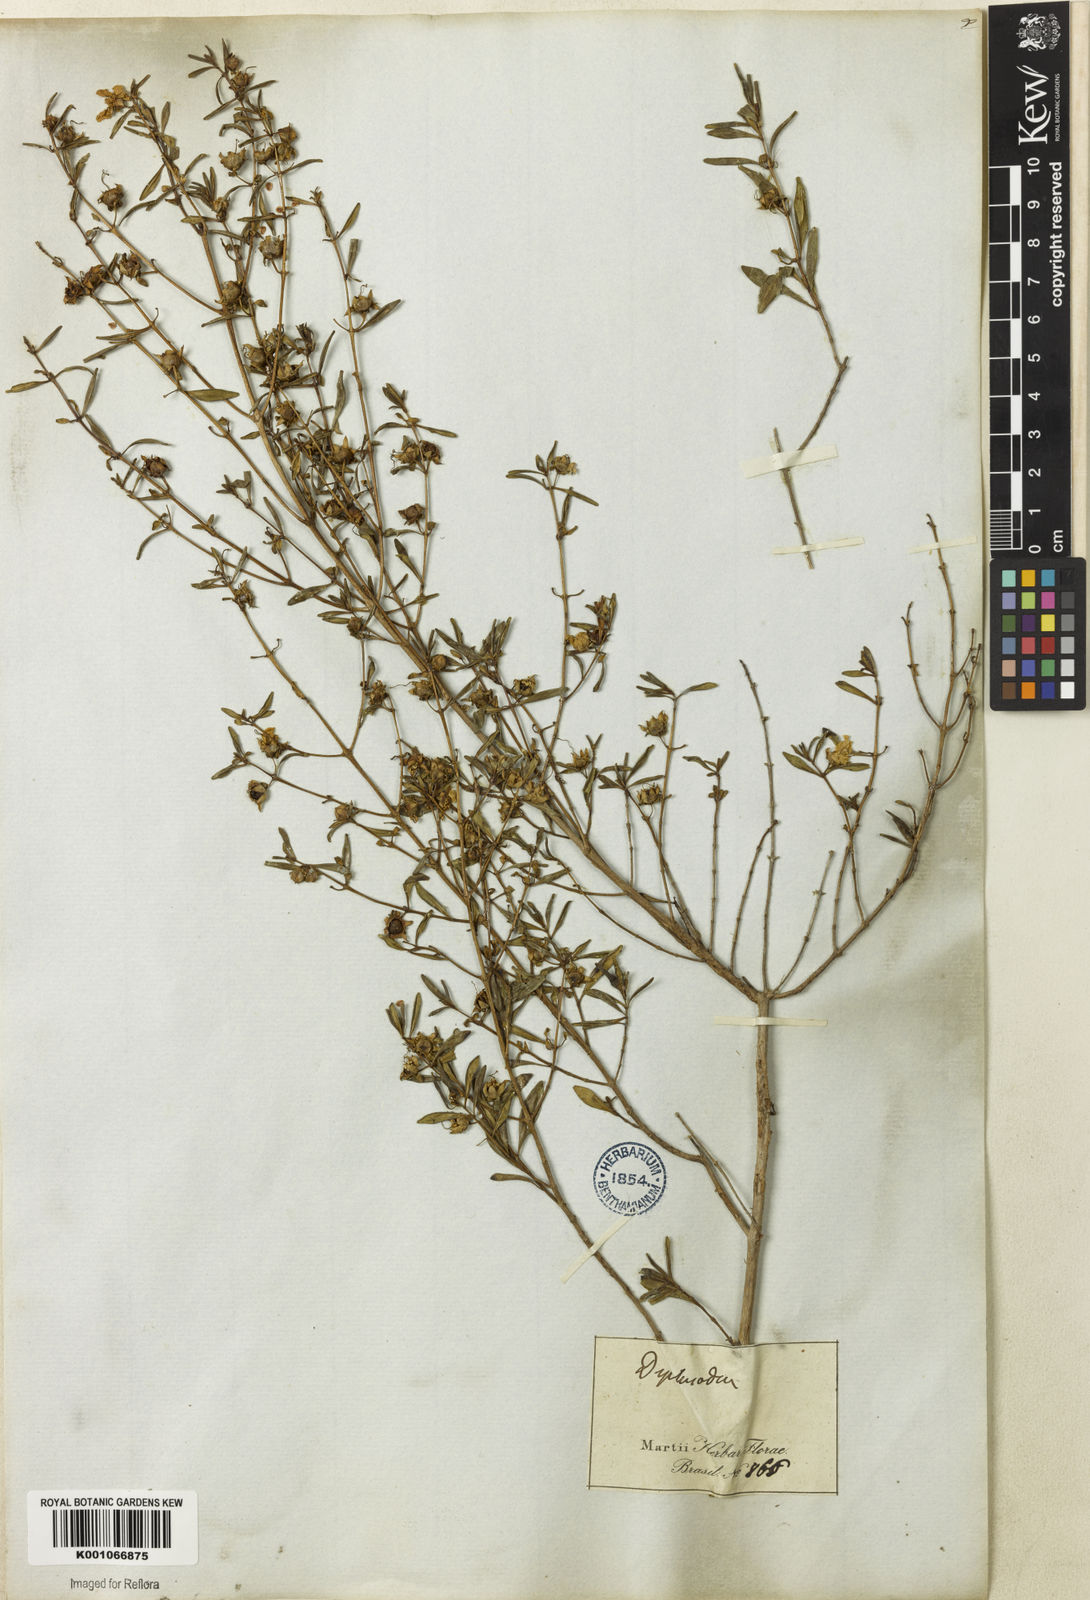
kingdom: Plantae
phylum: Tracheophyta
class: Magnoliopsida
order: Myrtales
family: Lythraceae
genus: Diplusodon
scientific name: Diplusodon virgatus
